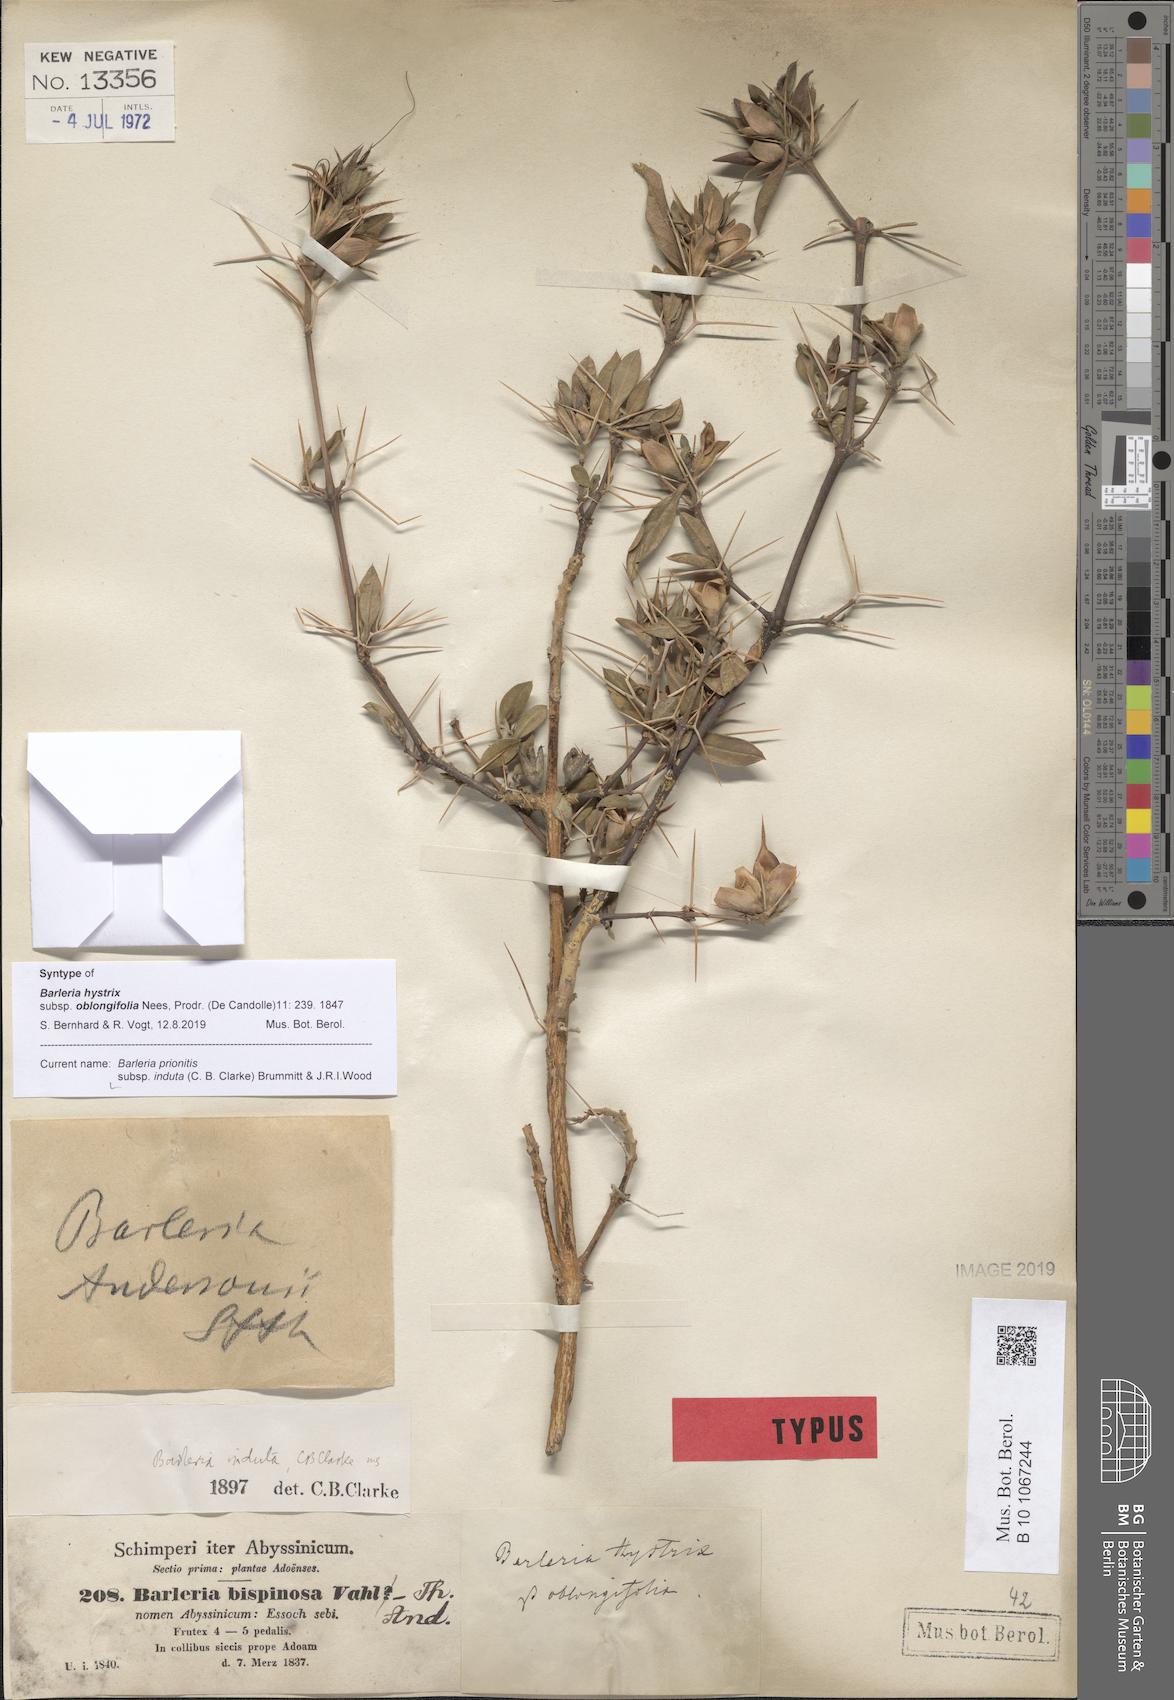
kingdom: Plantae
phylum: Tracheophyta
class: Magnoliopsida
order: Lamiales
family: Acanthaceae
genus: Barleria
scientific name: Barleria prionitis
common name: Barleria
